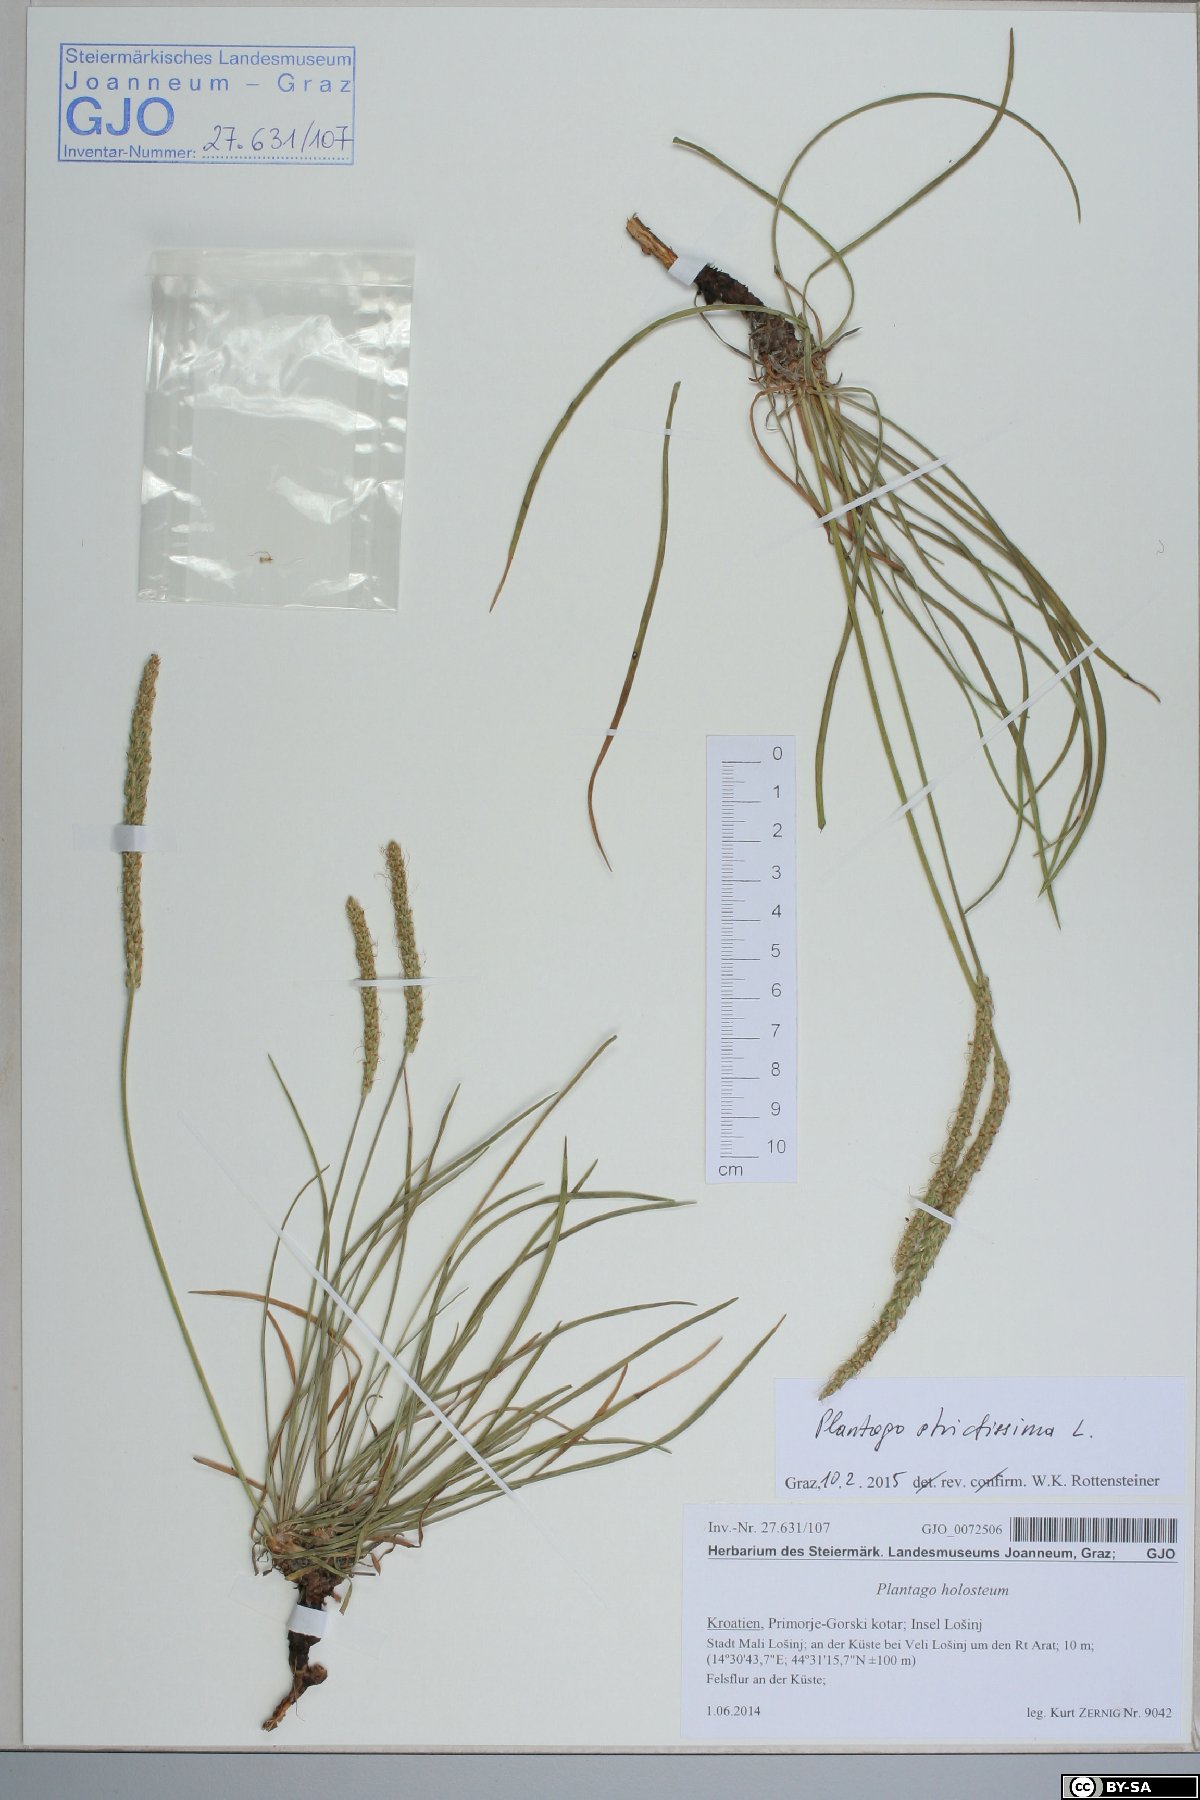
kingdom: Plantae
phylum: Tracheophyta
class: Magnoliopsida
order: Lamiales
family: Plantaginaceae
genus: Plantago
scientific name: Plantago strictissima
